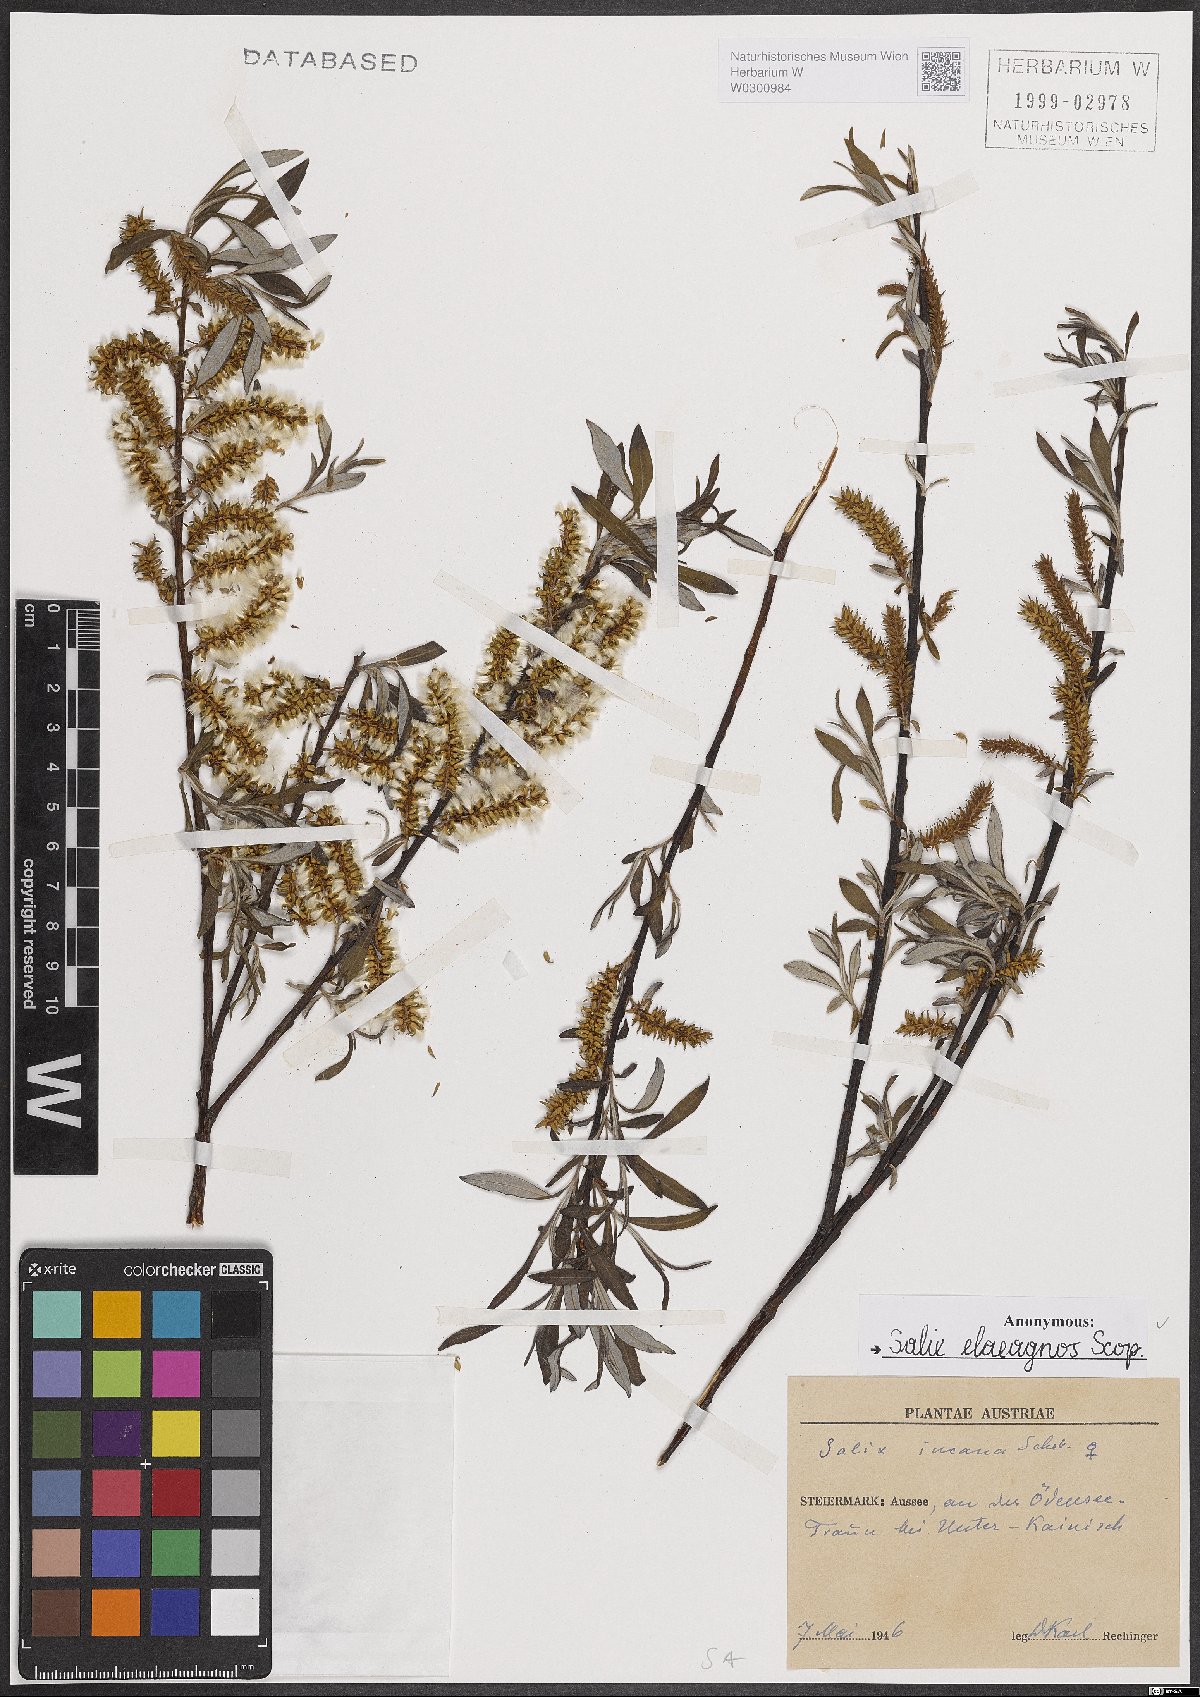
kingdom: Plantae
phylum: Tracheophyta
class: Magnoliopsida
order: Malpighiales
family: Salicaceae
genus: Salix
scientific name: Salix eleagnos
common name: Elaeagnus willow
